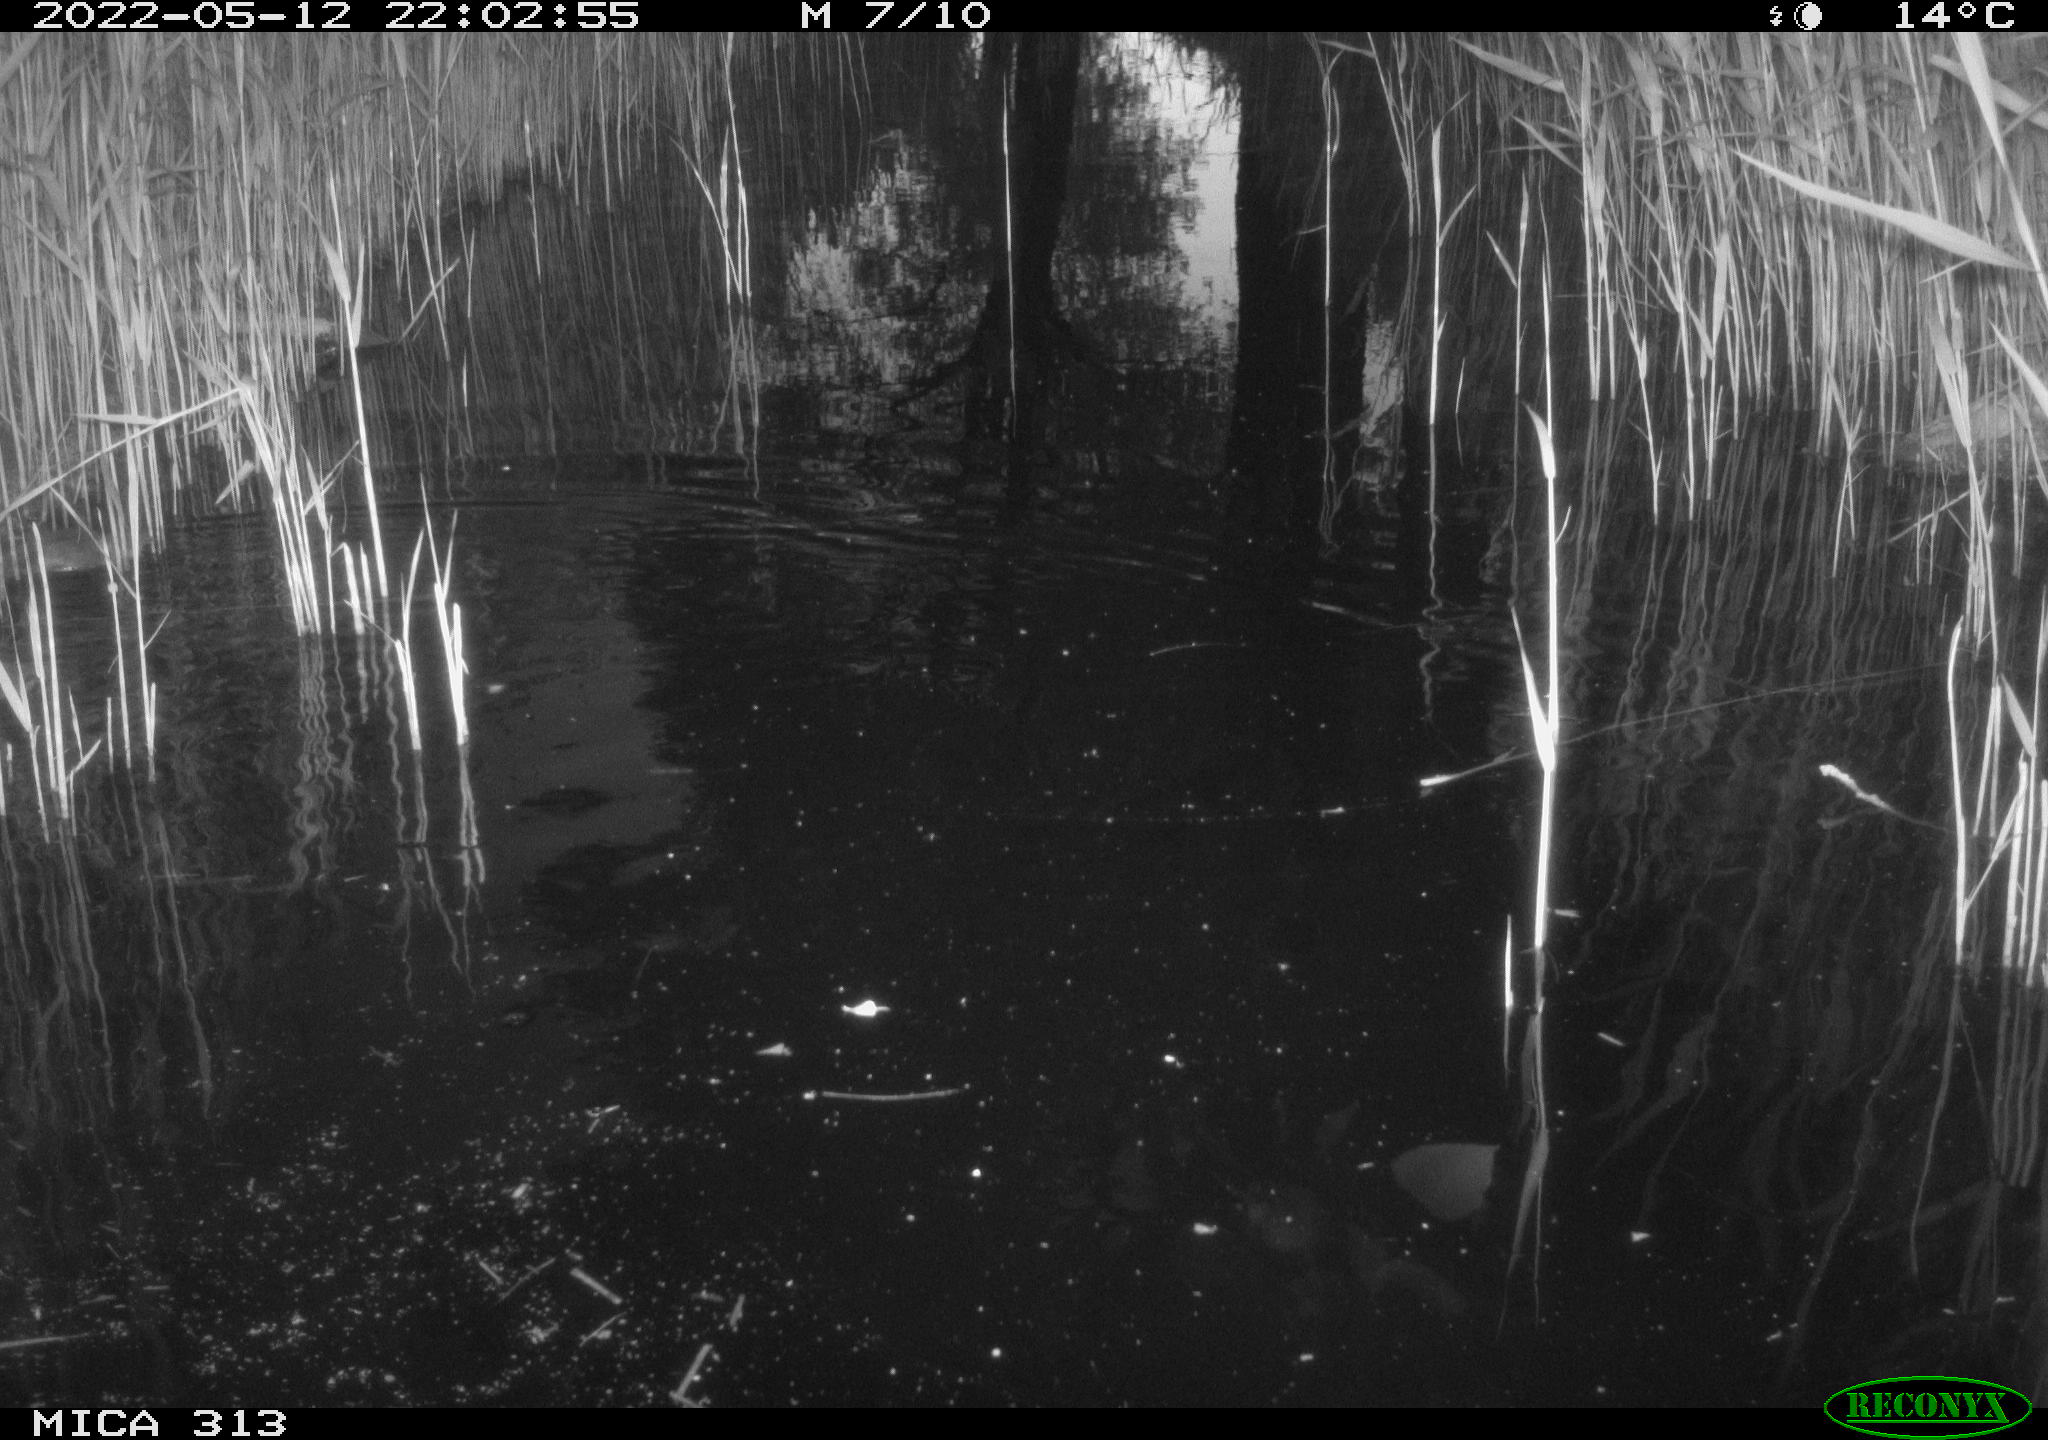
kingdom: Animalia
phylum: Chordata
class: Aves
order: Anseriformes
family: Anatidae
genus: Anas
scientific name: Anas platyrhynchos
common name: Mallard
